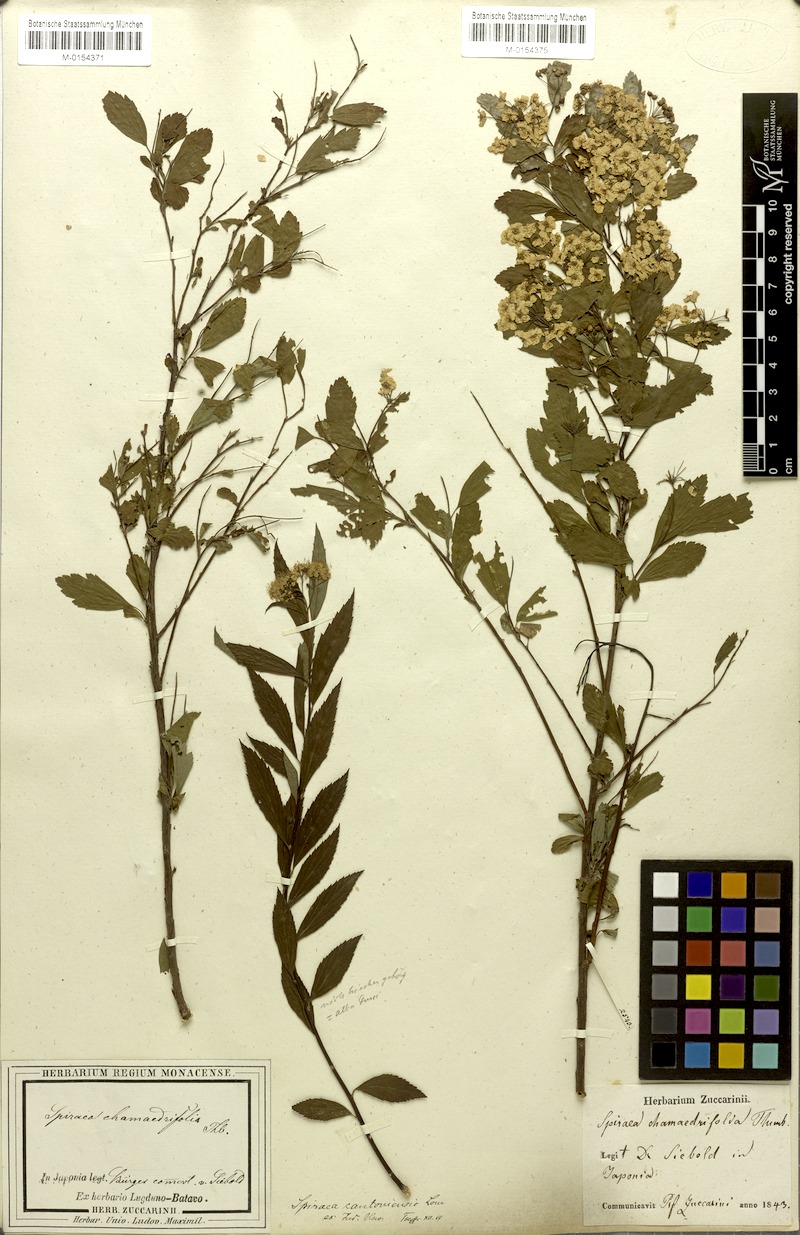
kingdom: Plantae
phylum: Tracheophyta
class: Magnoliopsida
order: Rosales
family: Rosaceae
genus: Spiraea
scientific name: Spiraea cantoniensis
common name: Reeves' meadowsweet
